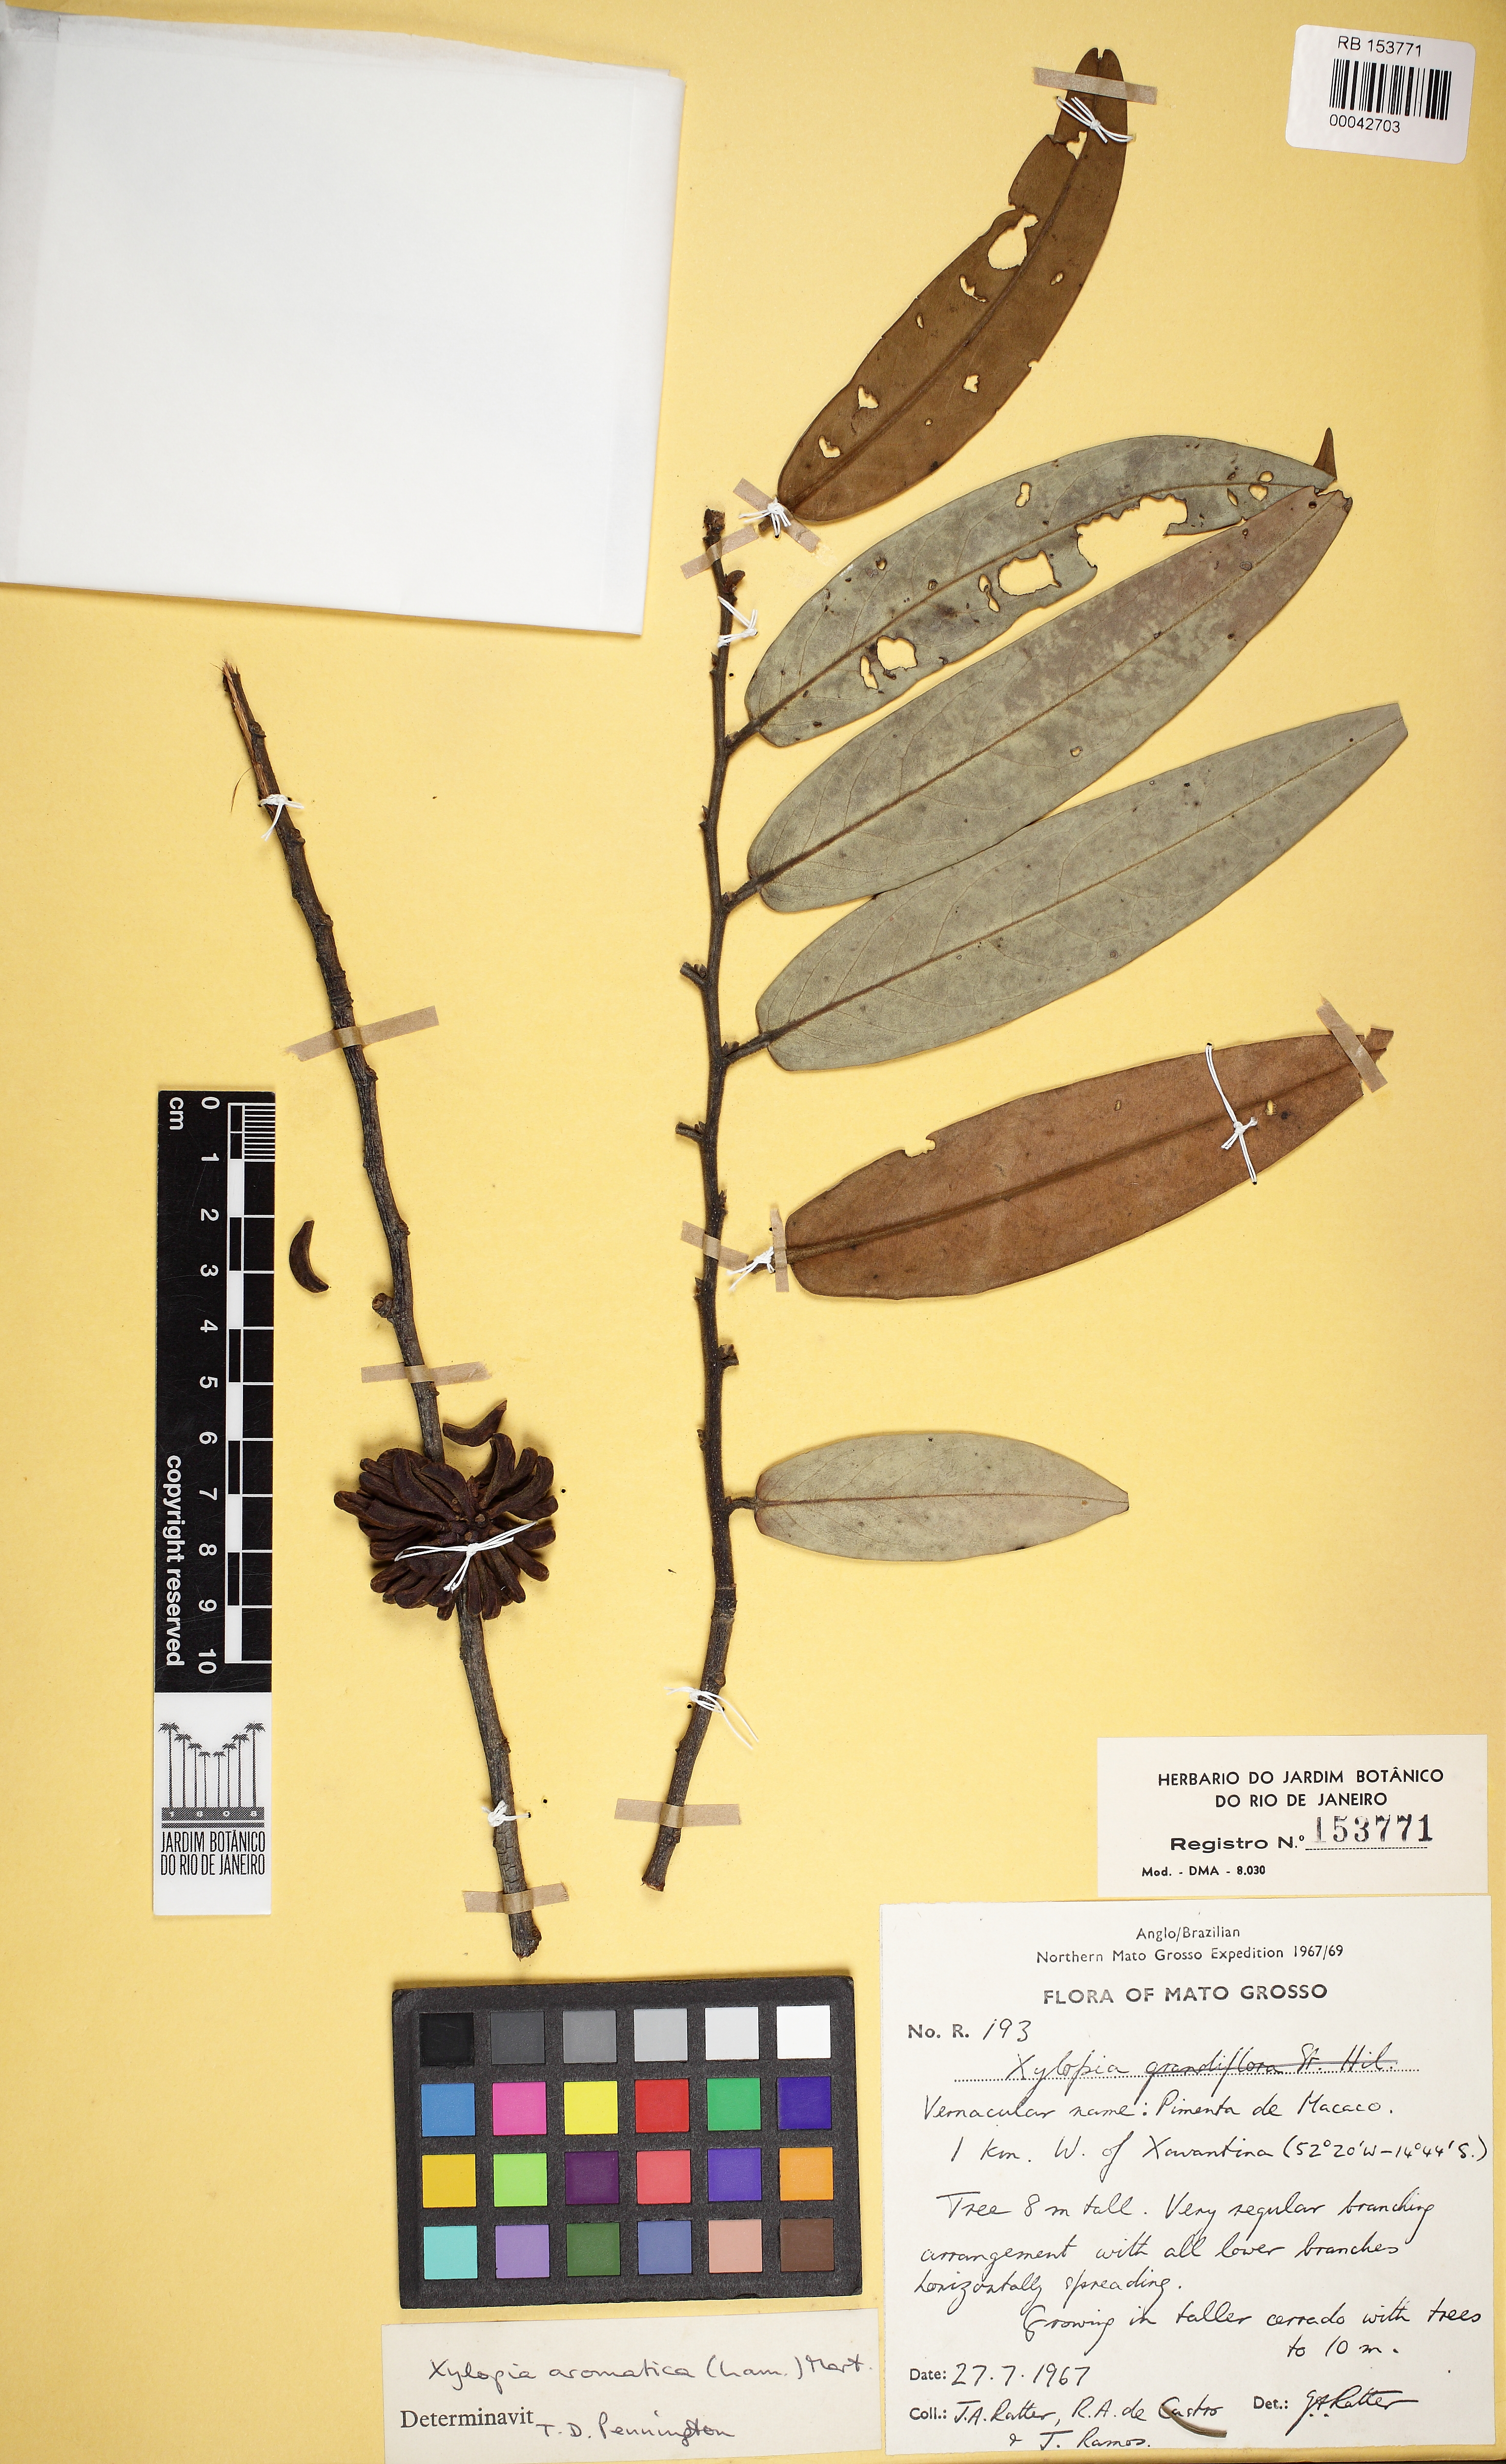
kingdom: Plantae
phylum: Tracheophyta
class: Magnoliopsida
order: Magnoliales
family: Annonaceae
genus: Xylopia
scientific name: Xylopia aromatica
